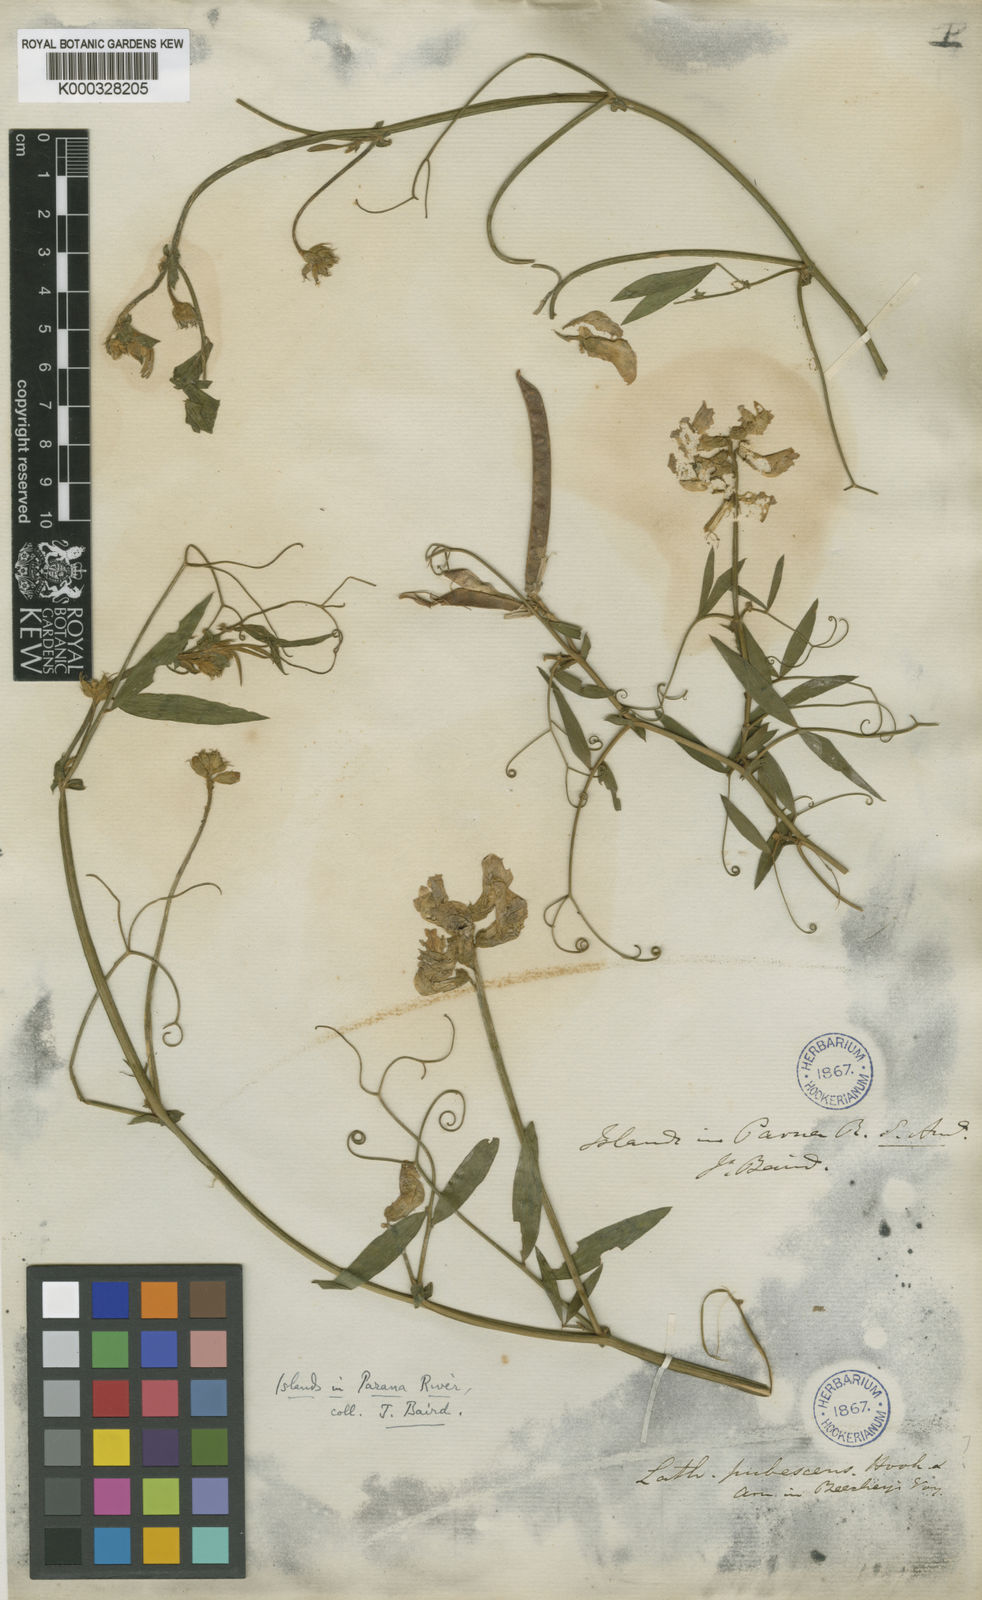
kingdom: Plantae
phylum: Tracheophyta
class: Magnoliopsida
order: Fabales
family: Fabaceae
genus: Lathyrus
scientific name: Lathyrus pubescens
